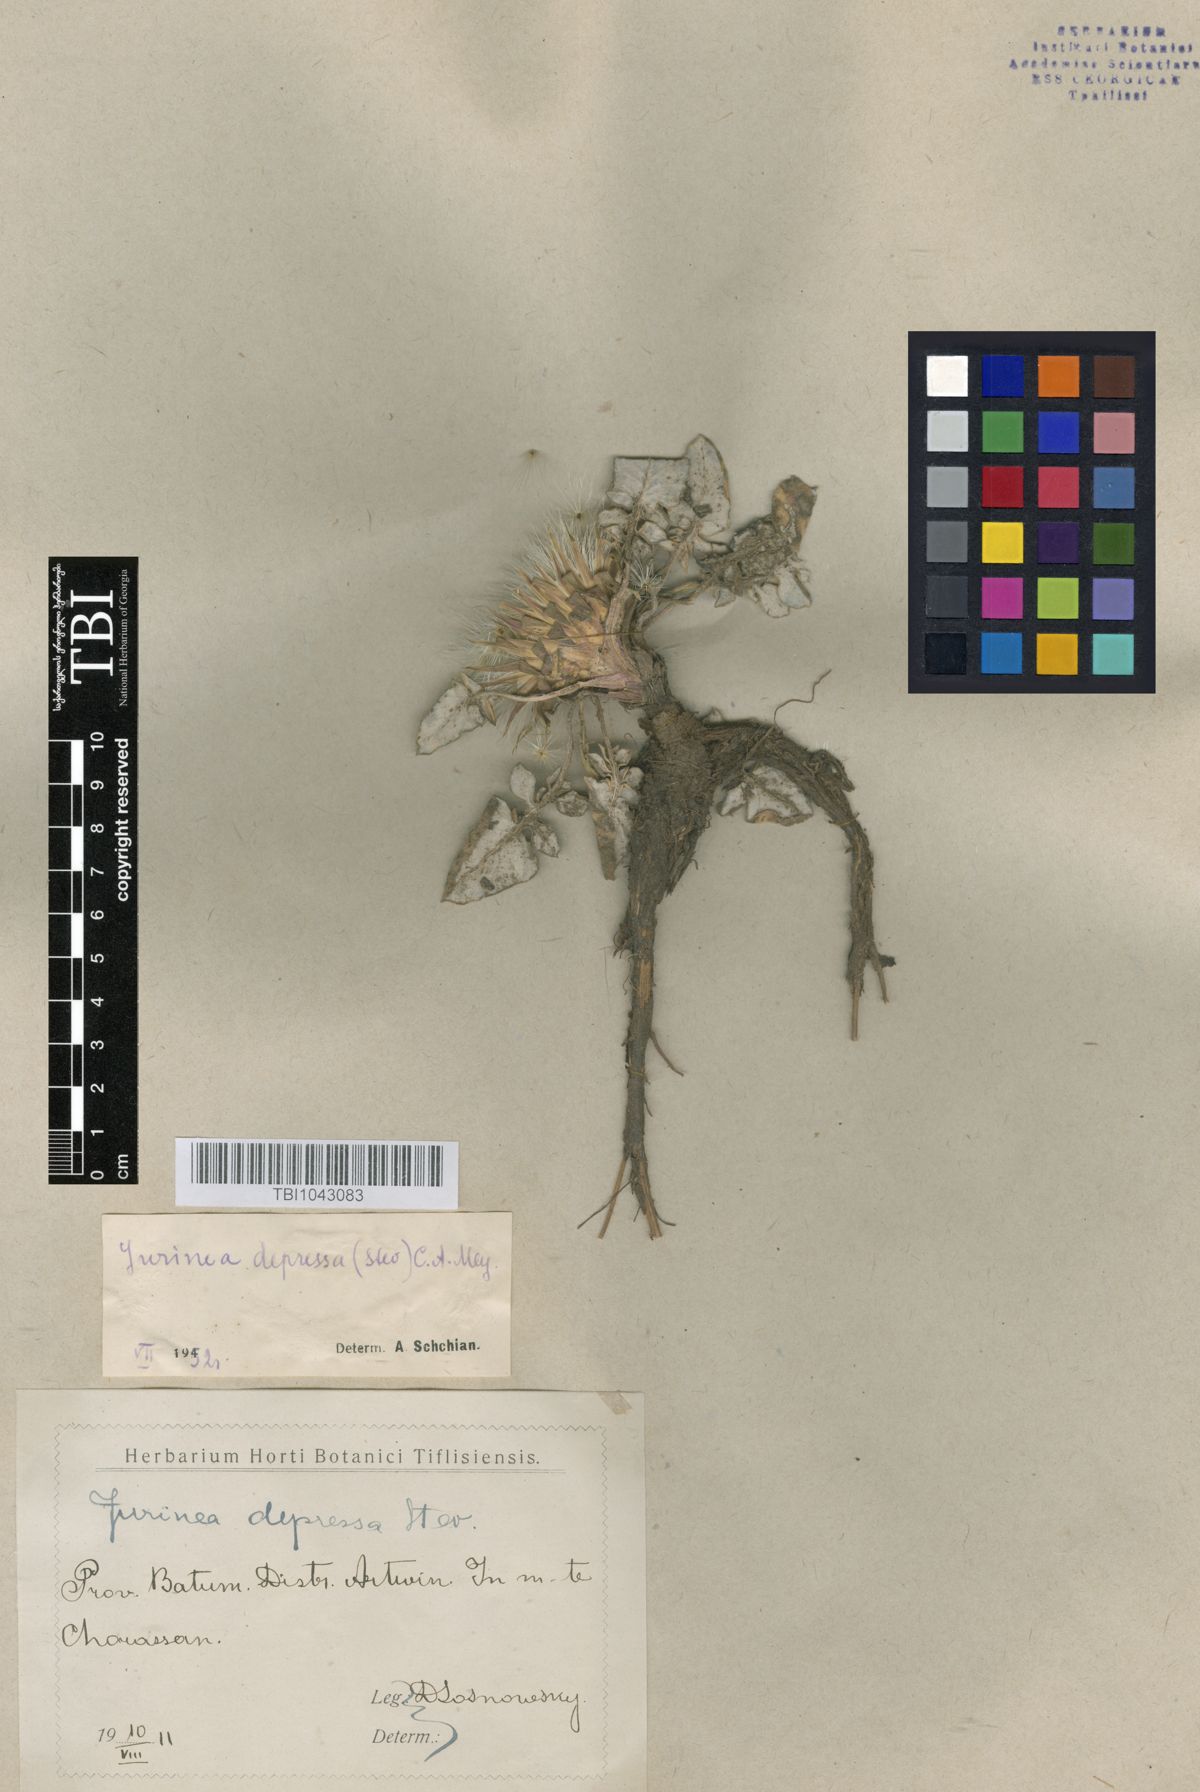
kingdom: Plantae
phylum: Tracheophyta
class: Magnoliopsida
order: Asterales
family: Asteraceae
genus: Jurinea
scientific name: Jurinea moschus
